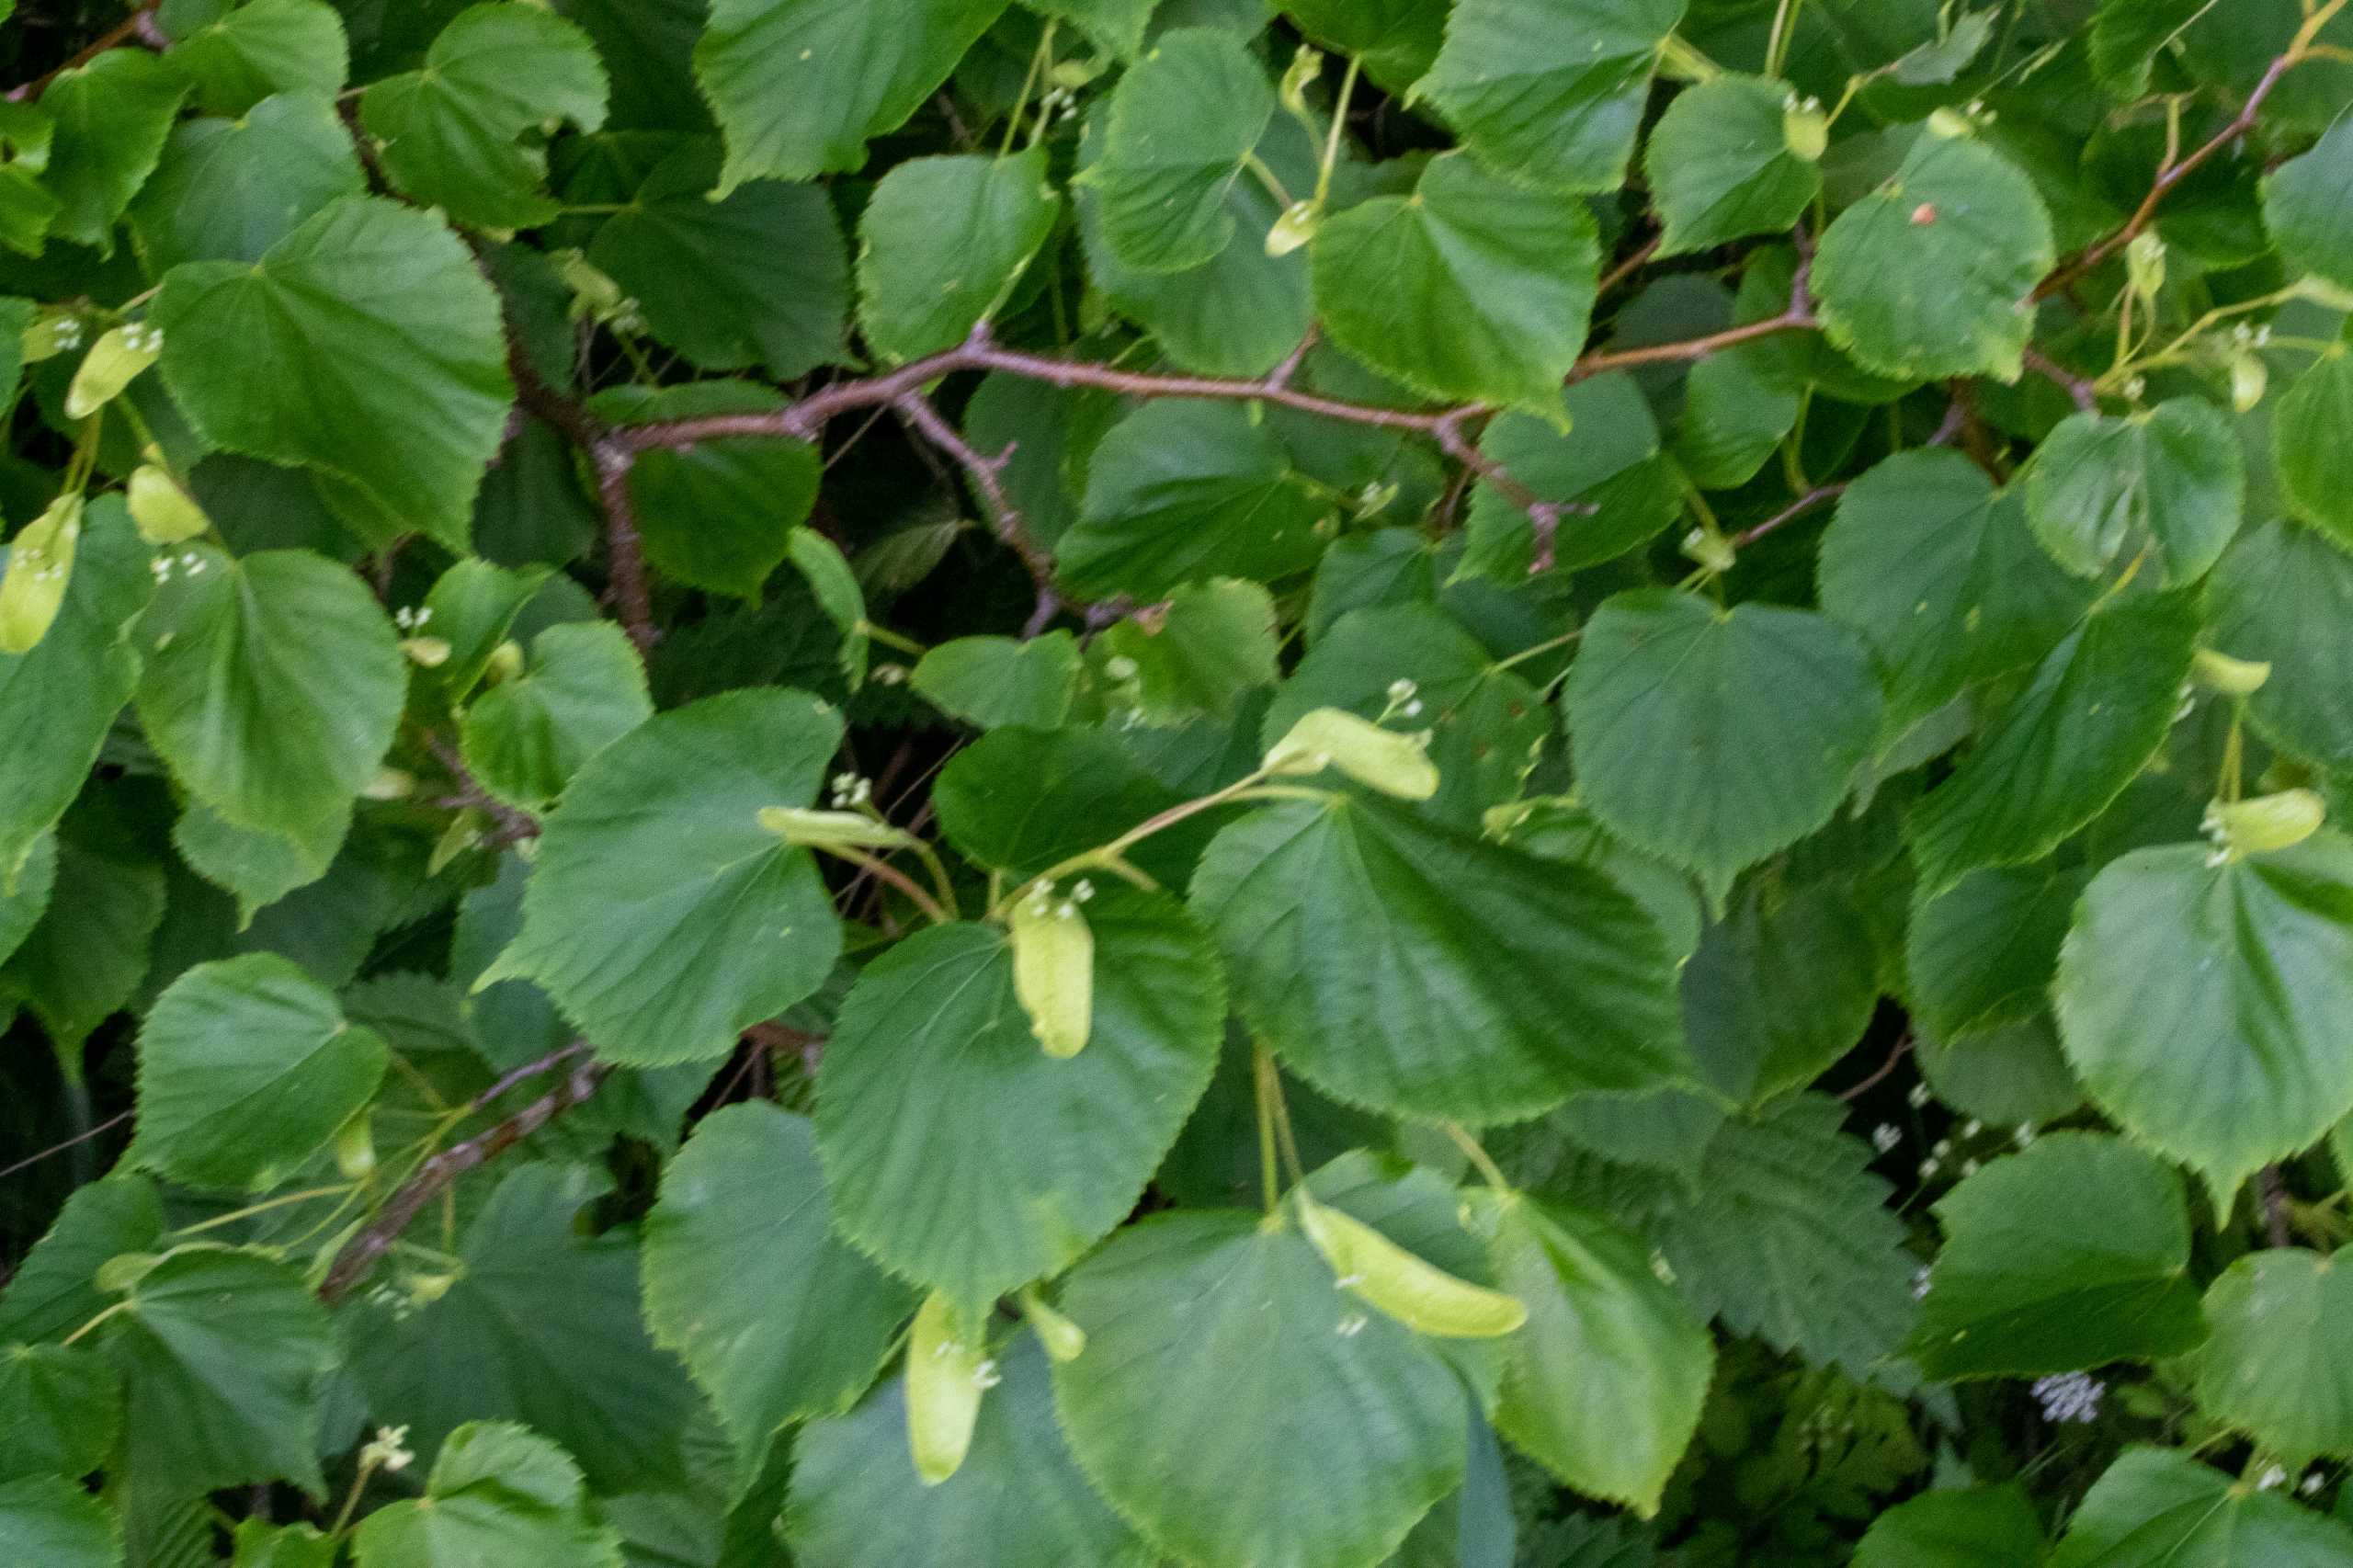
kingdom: Plantae
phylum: Tracheophyta
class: Magnoliopsida
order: Malvales
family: Malvaceae
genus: Tilia
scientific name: Tilia
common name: Lindeslægten
